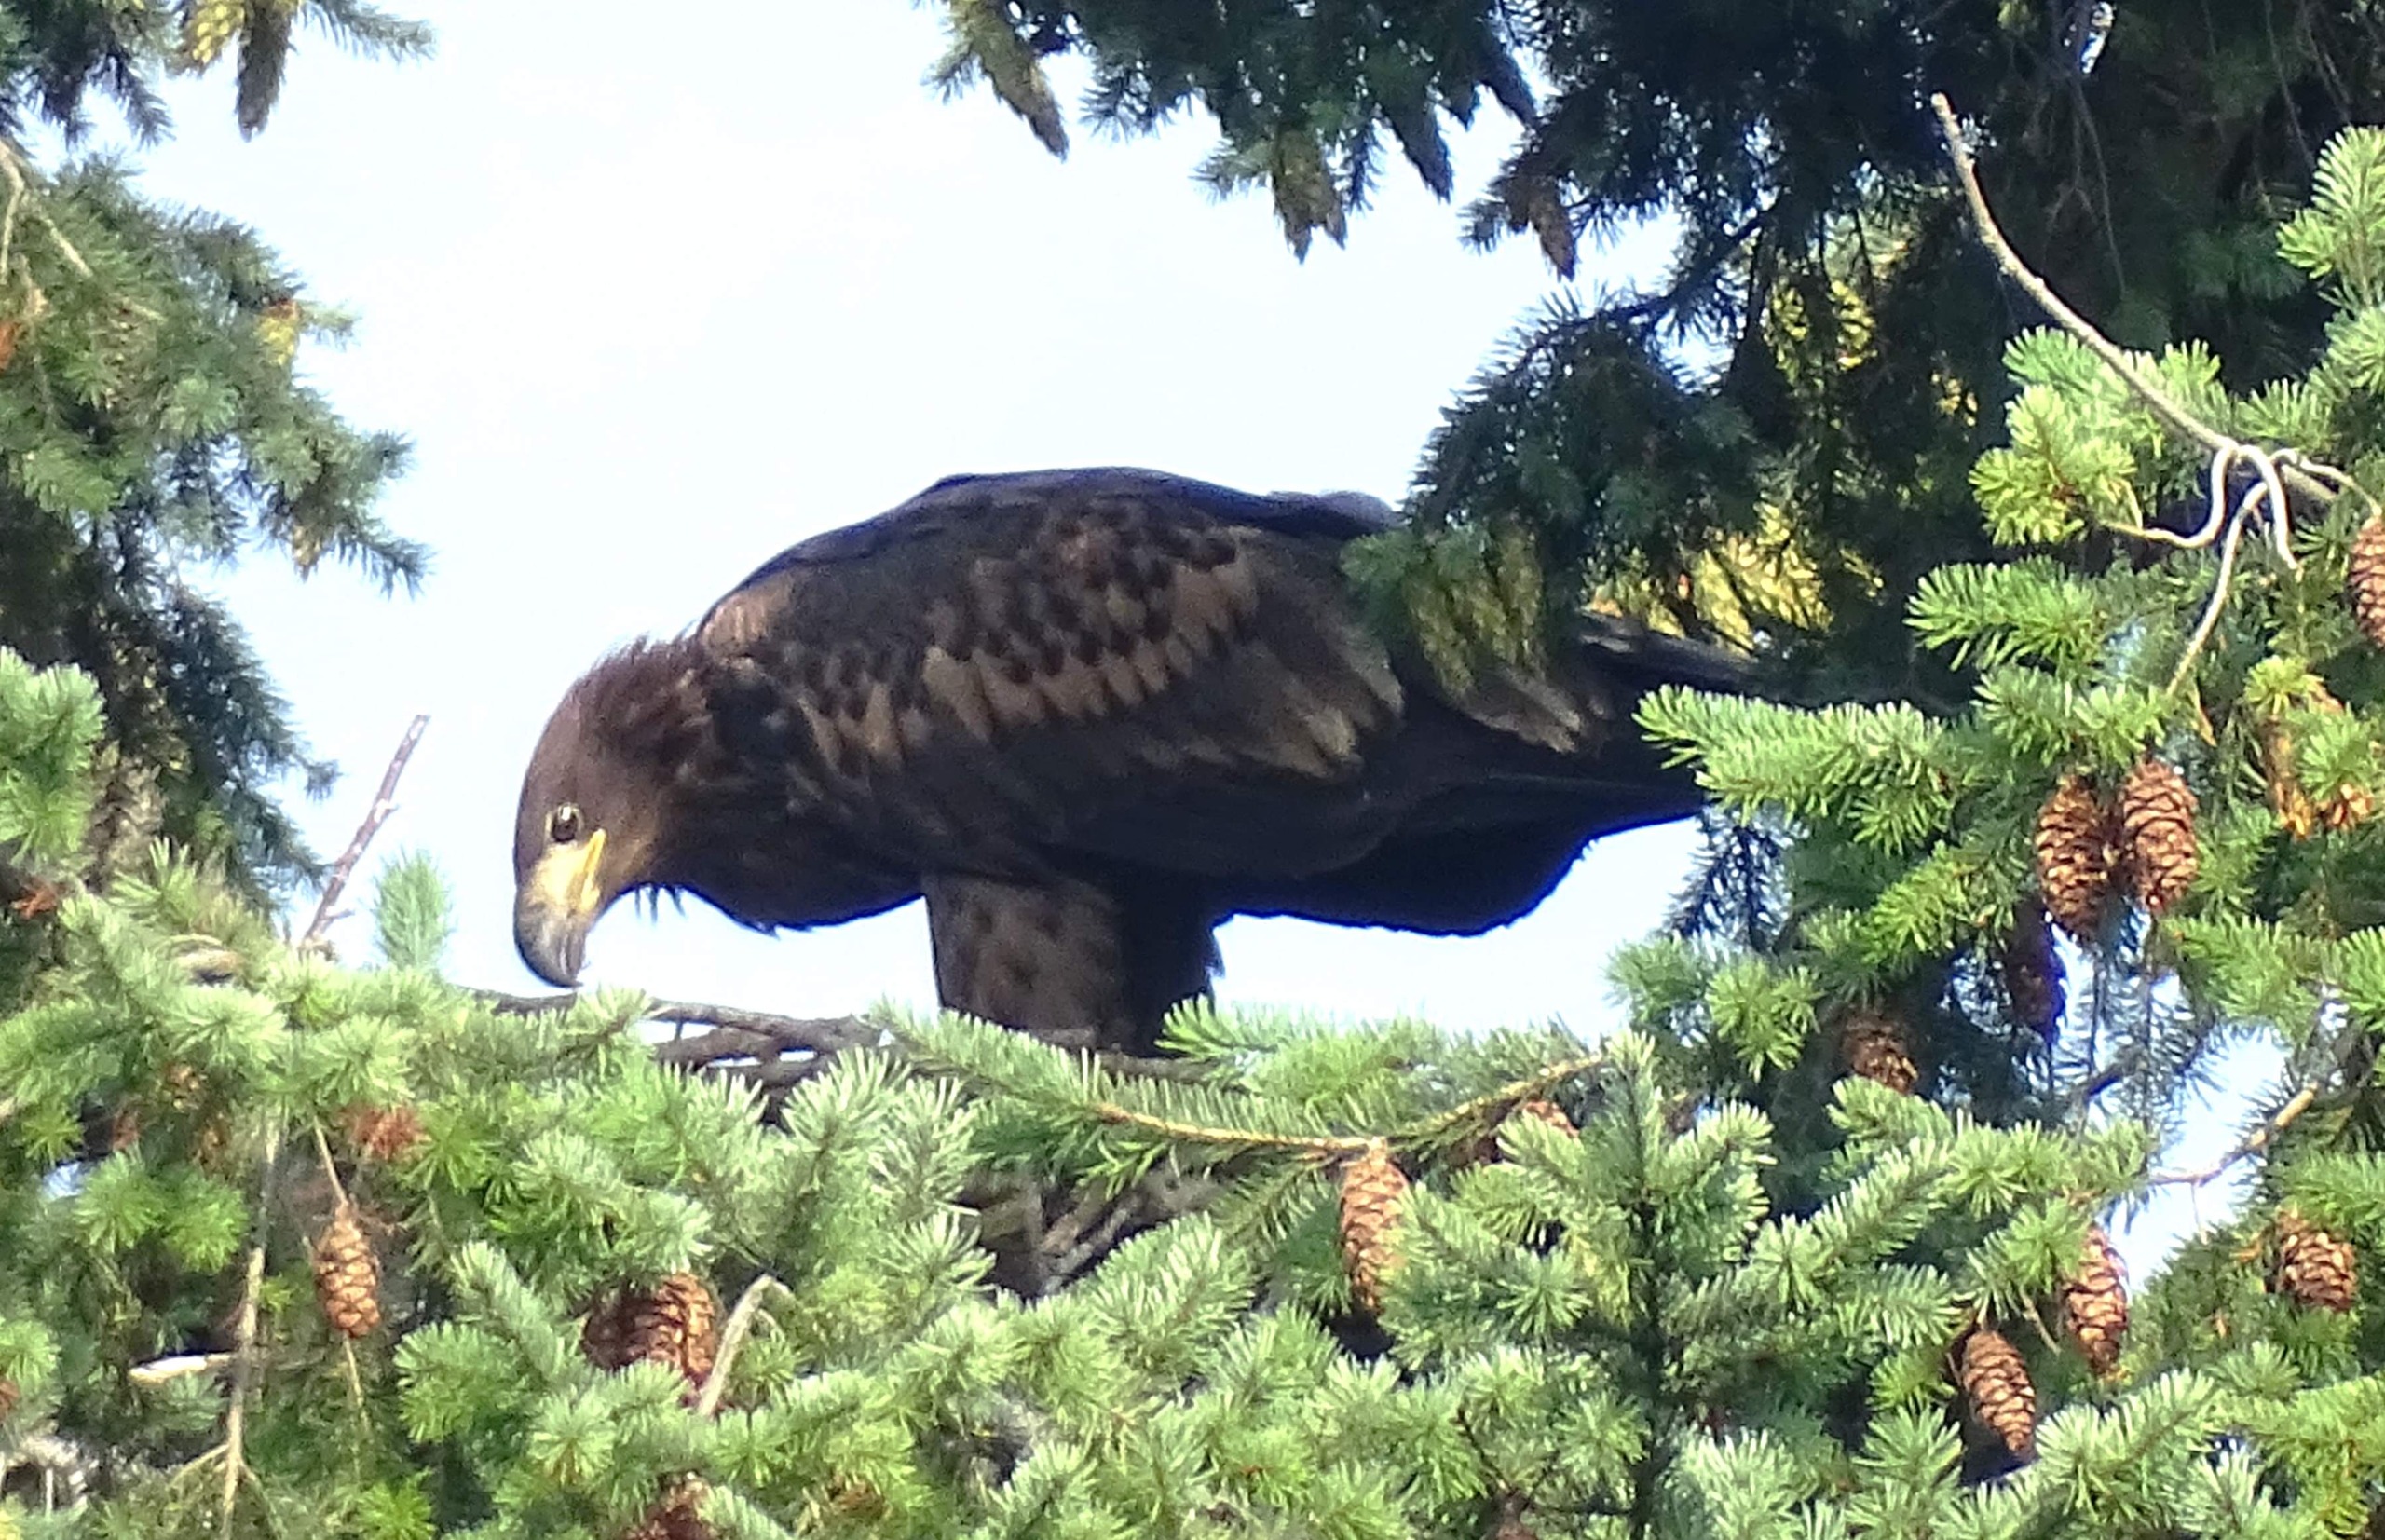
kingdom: Animalia
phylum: Chordata
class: Aves
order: Accipitriformes
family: Accipitridae
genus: Haliaeetus
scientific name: Haliaeetus albicilla
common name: Havørn
